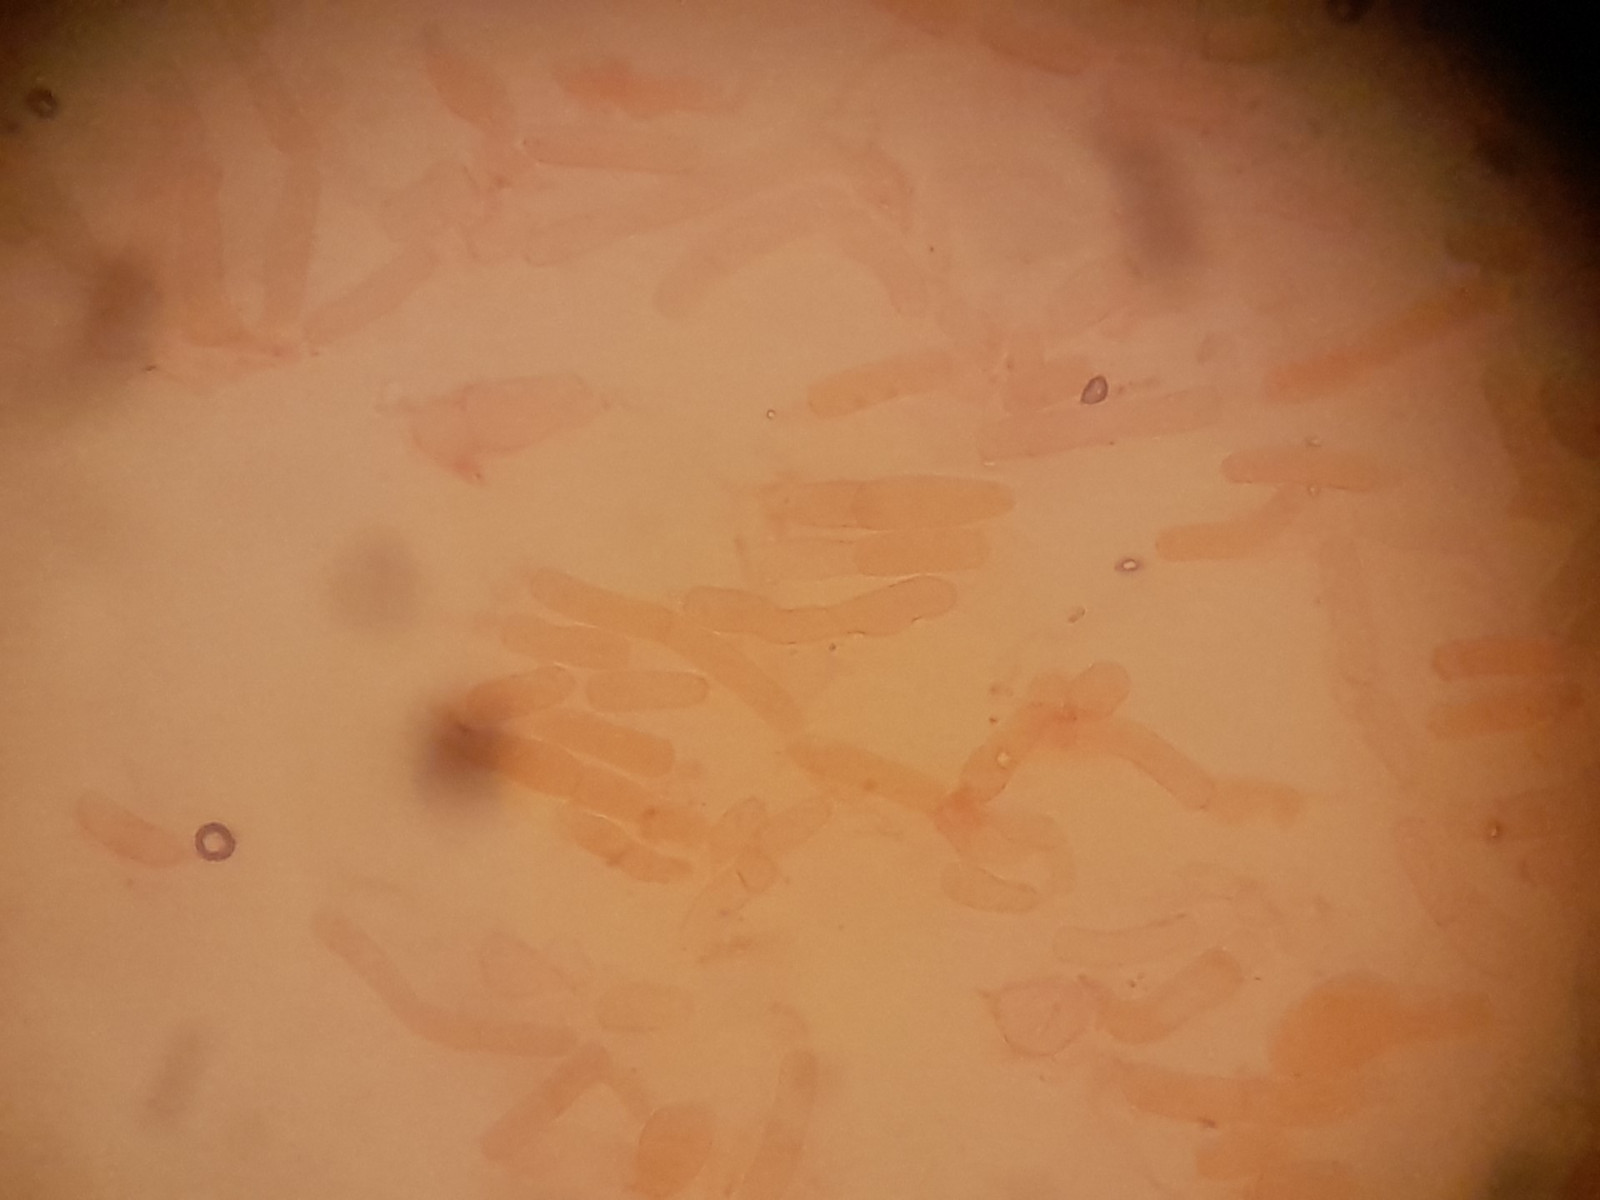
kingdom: Fungi
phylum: Basidiomycota
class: Agaricomycetes
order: Corticiales
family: Corticiaceae
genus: Laetisaria
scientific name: Laetisaria
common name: rødtråd
